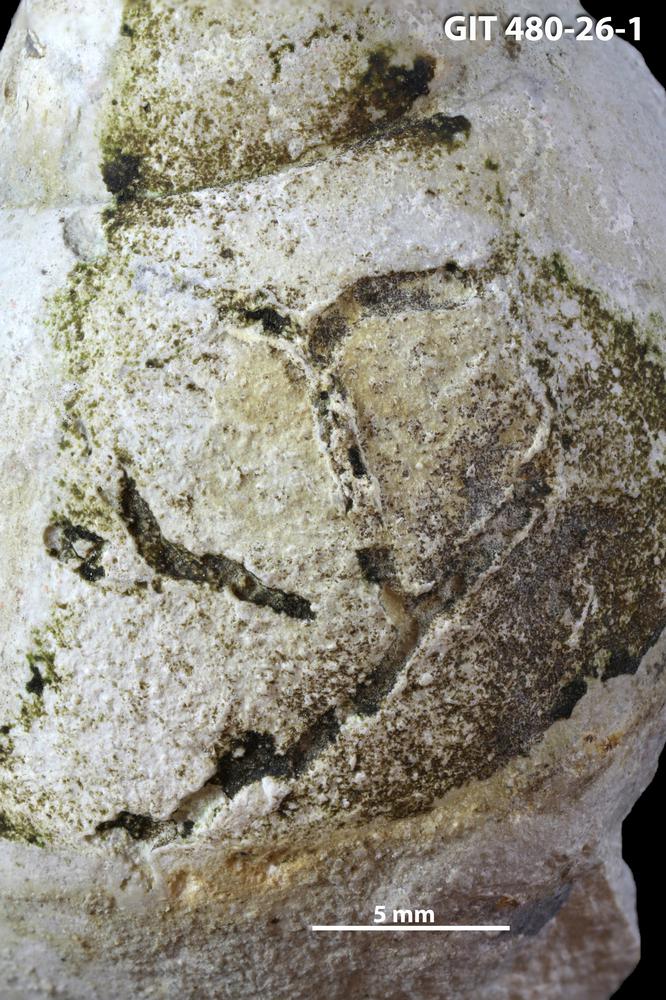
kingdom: Animalia
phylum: Annelida
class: Polychaeta
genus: Arachnostega
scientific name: Arachnostega
